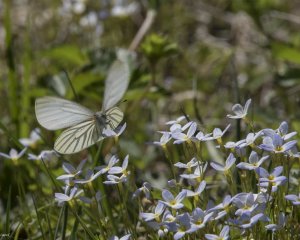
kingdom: Animalia
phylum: Arthropoda
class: Insecta
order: Lepidoptera
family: Pieridae
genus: Pieris
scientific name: Pieris oleracea
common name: Mustard White
